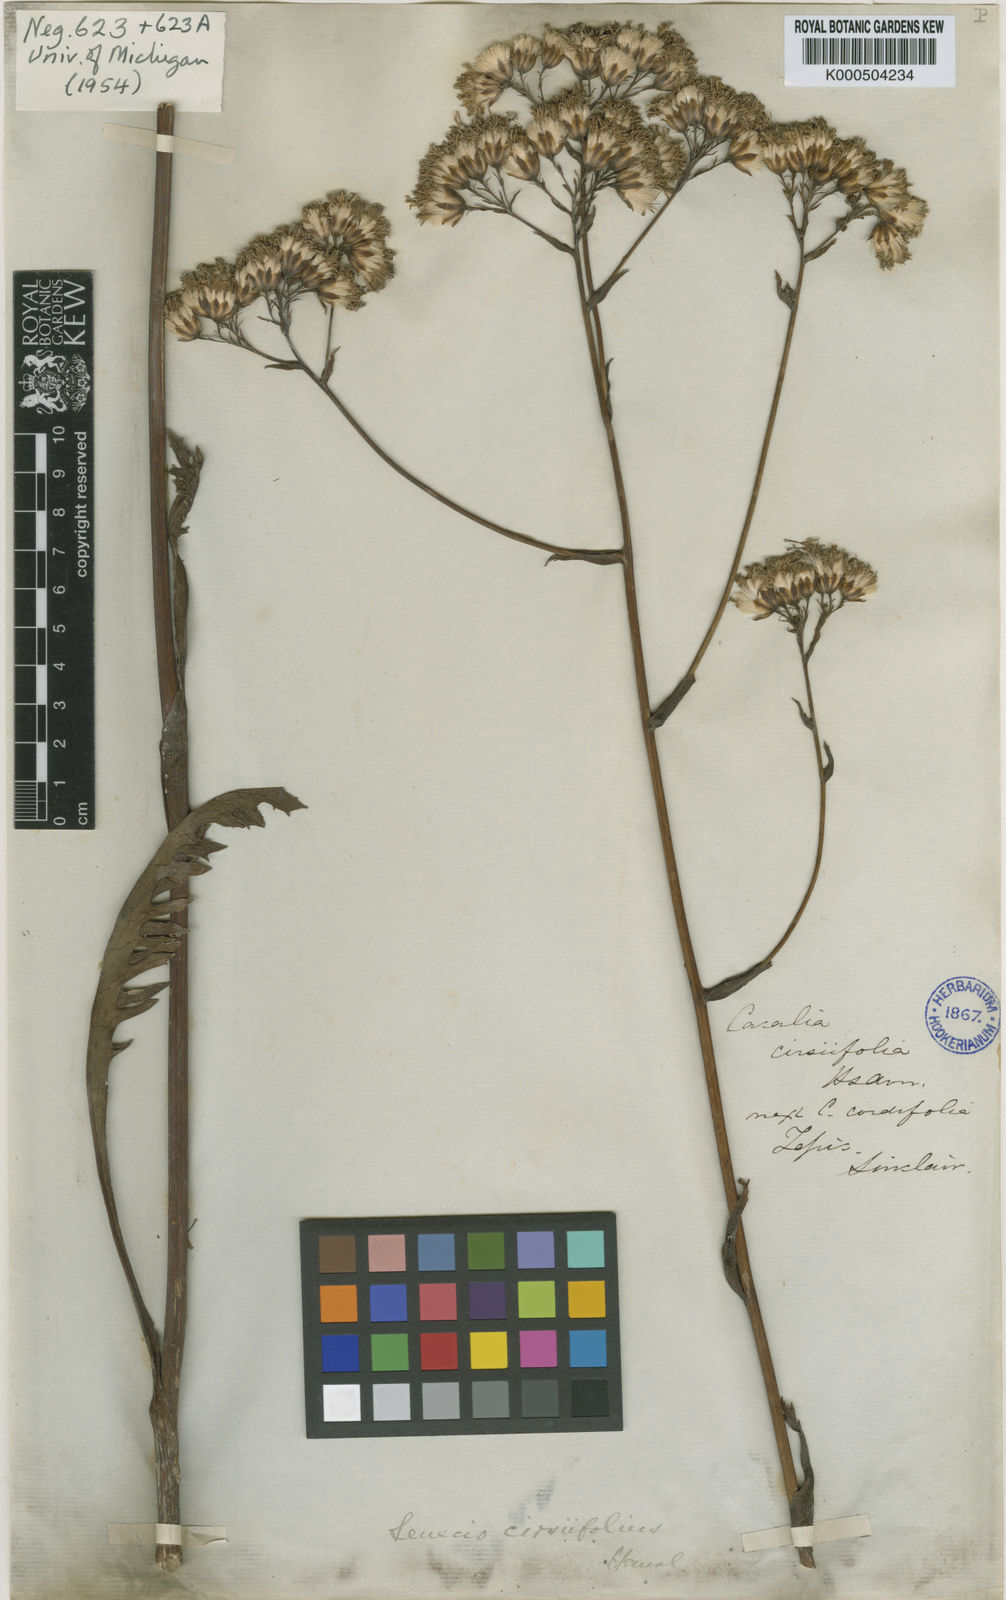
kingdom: Plantae
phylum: Tracheophyta
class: Magnoliopsida
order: Asterales
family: Asteraceae
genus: Psacalium
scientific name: Psacalium pringlei
